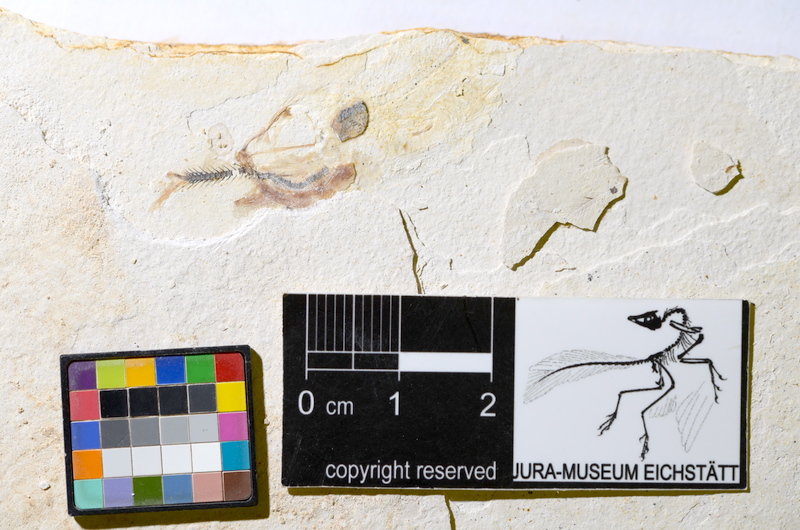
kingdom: Animalia
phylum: Chordata
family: Ascalaboidae
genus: Ebertichthys
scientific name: Ebertichthys ettlingensis
